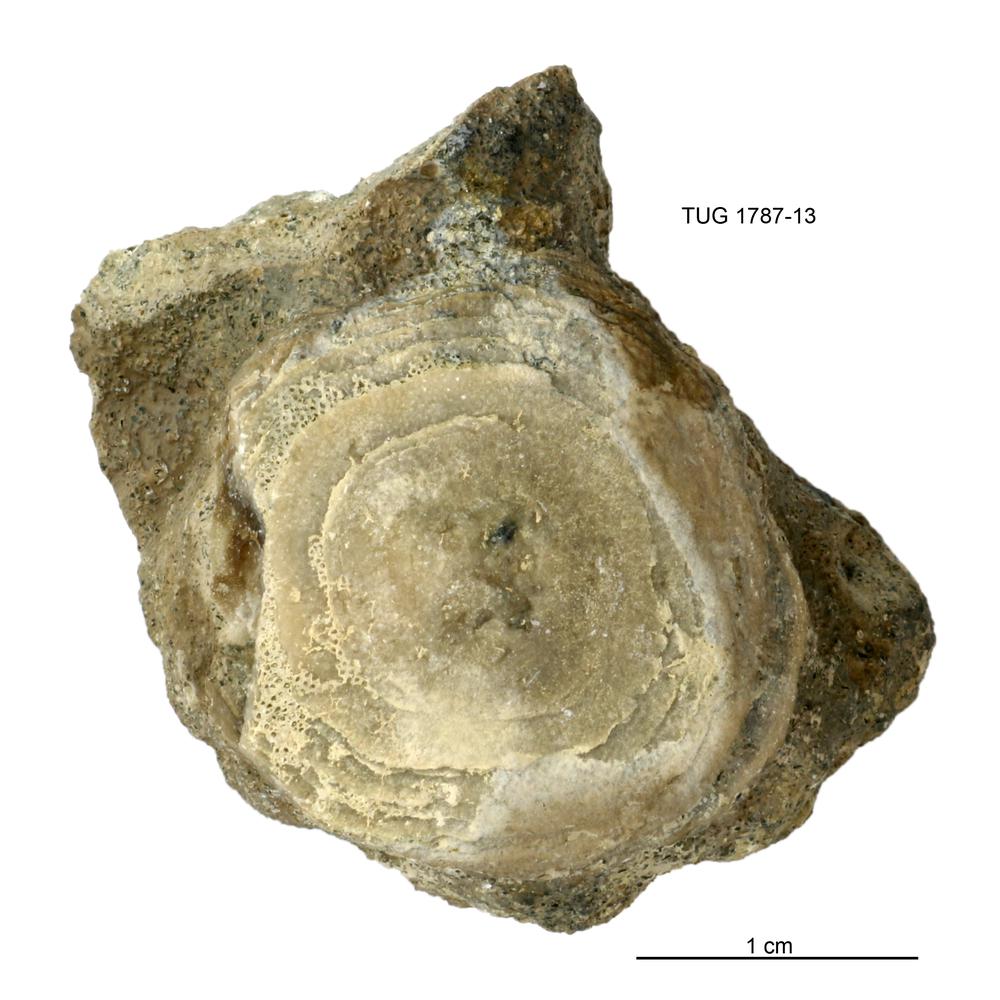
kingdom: Animalia
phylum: Brachiopoda
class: Lingulata
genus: Pseudometoptoma
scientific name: Pseudometoptoma
